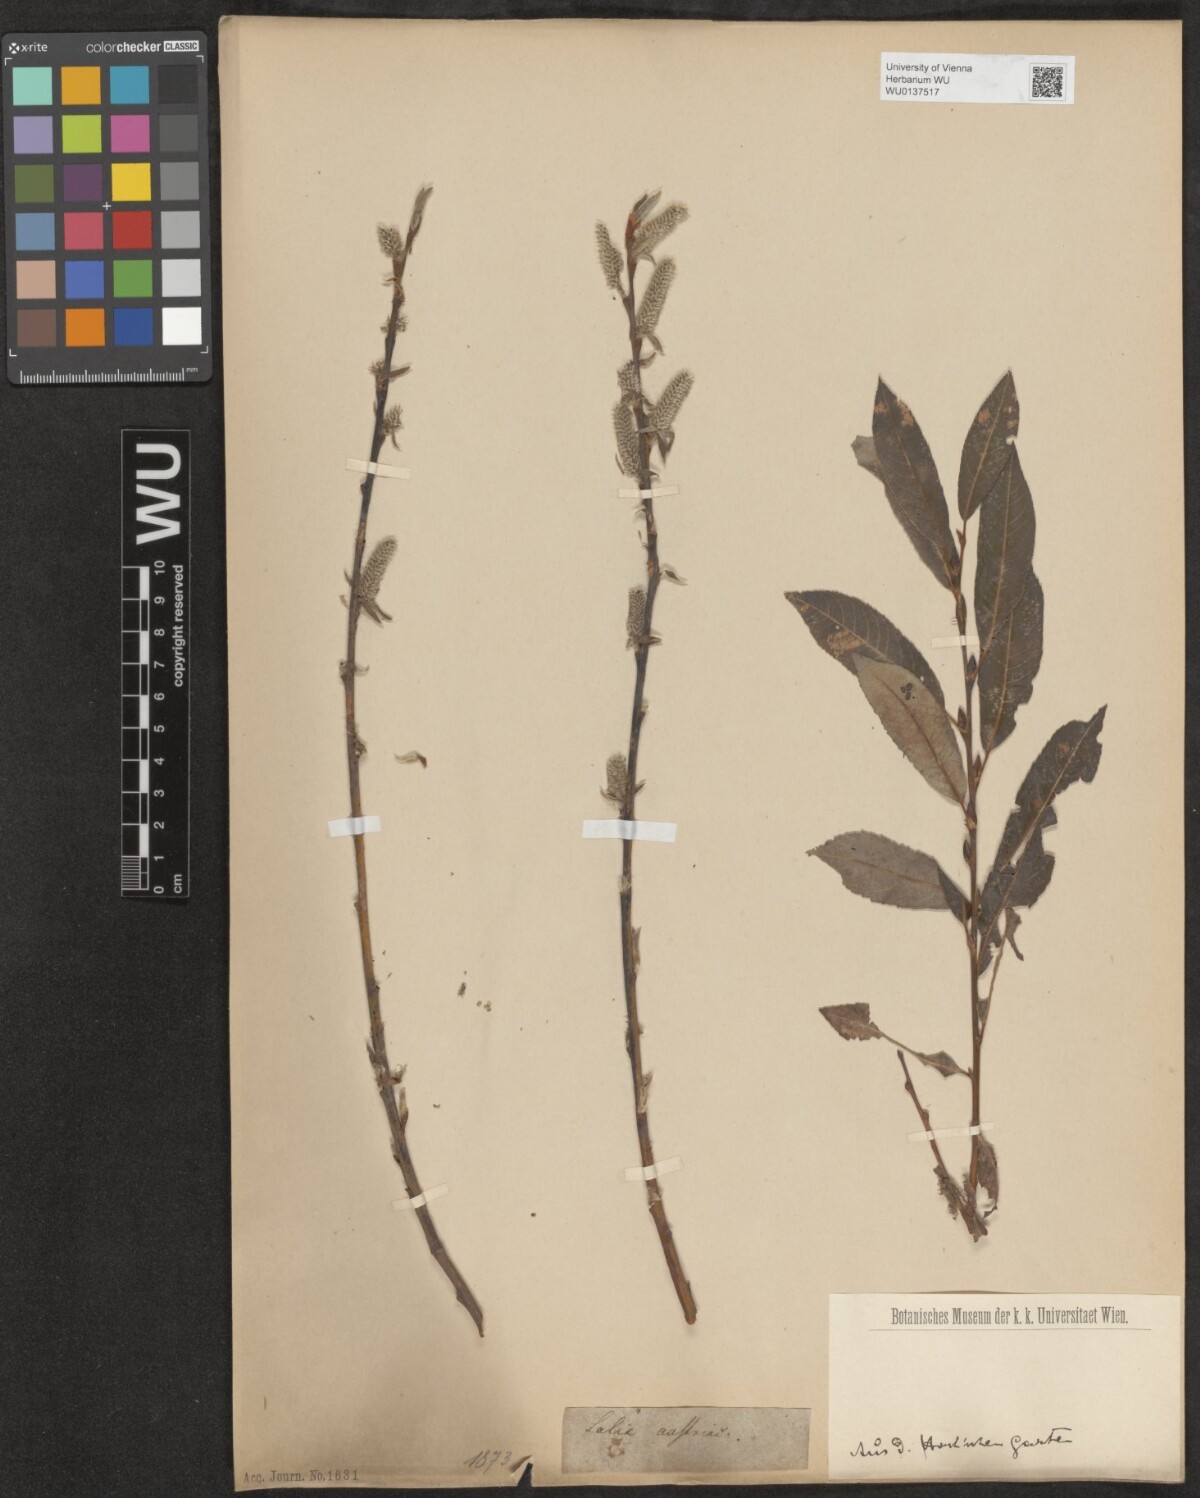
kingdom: Plantae
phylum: Tracheophyta
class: Magnoliopsida
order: Malpighiales
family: Salicaceae
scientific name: Salicaceae
